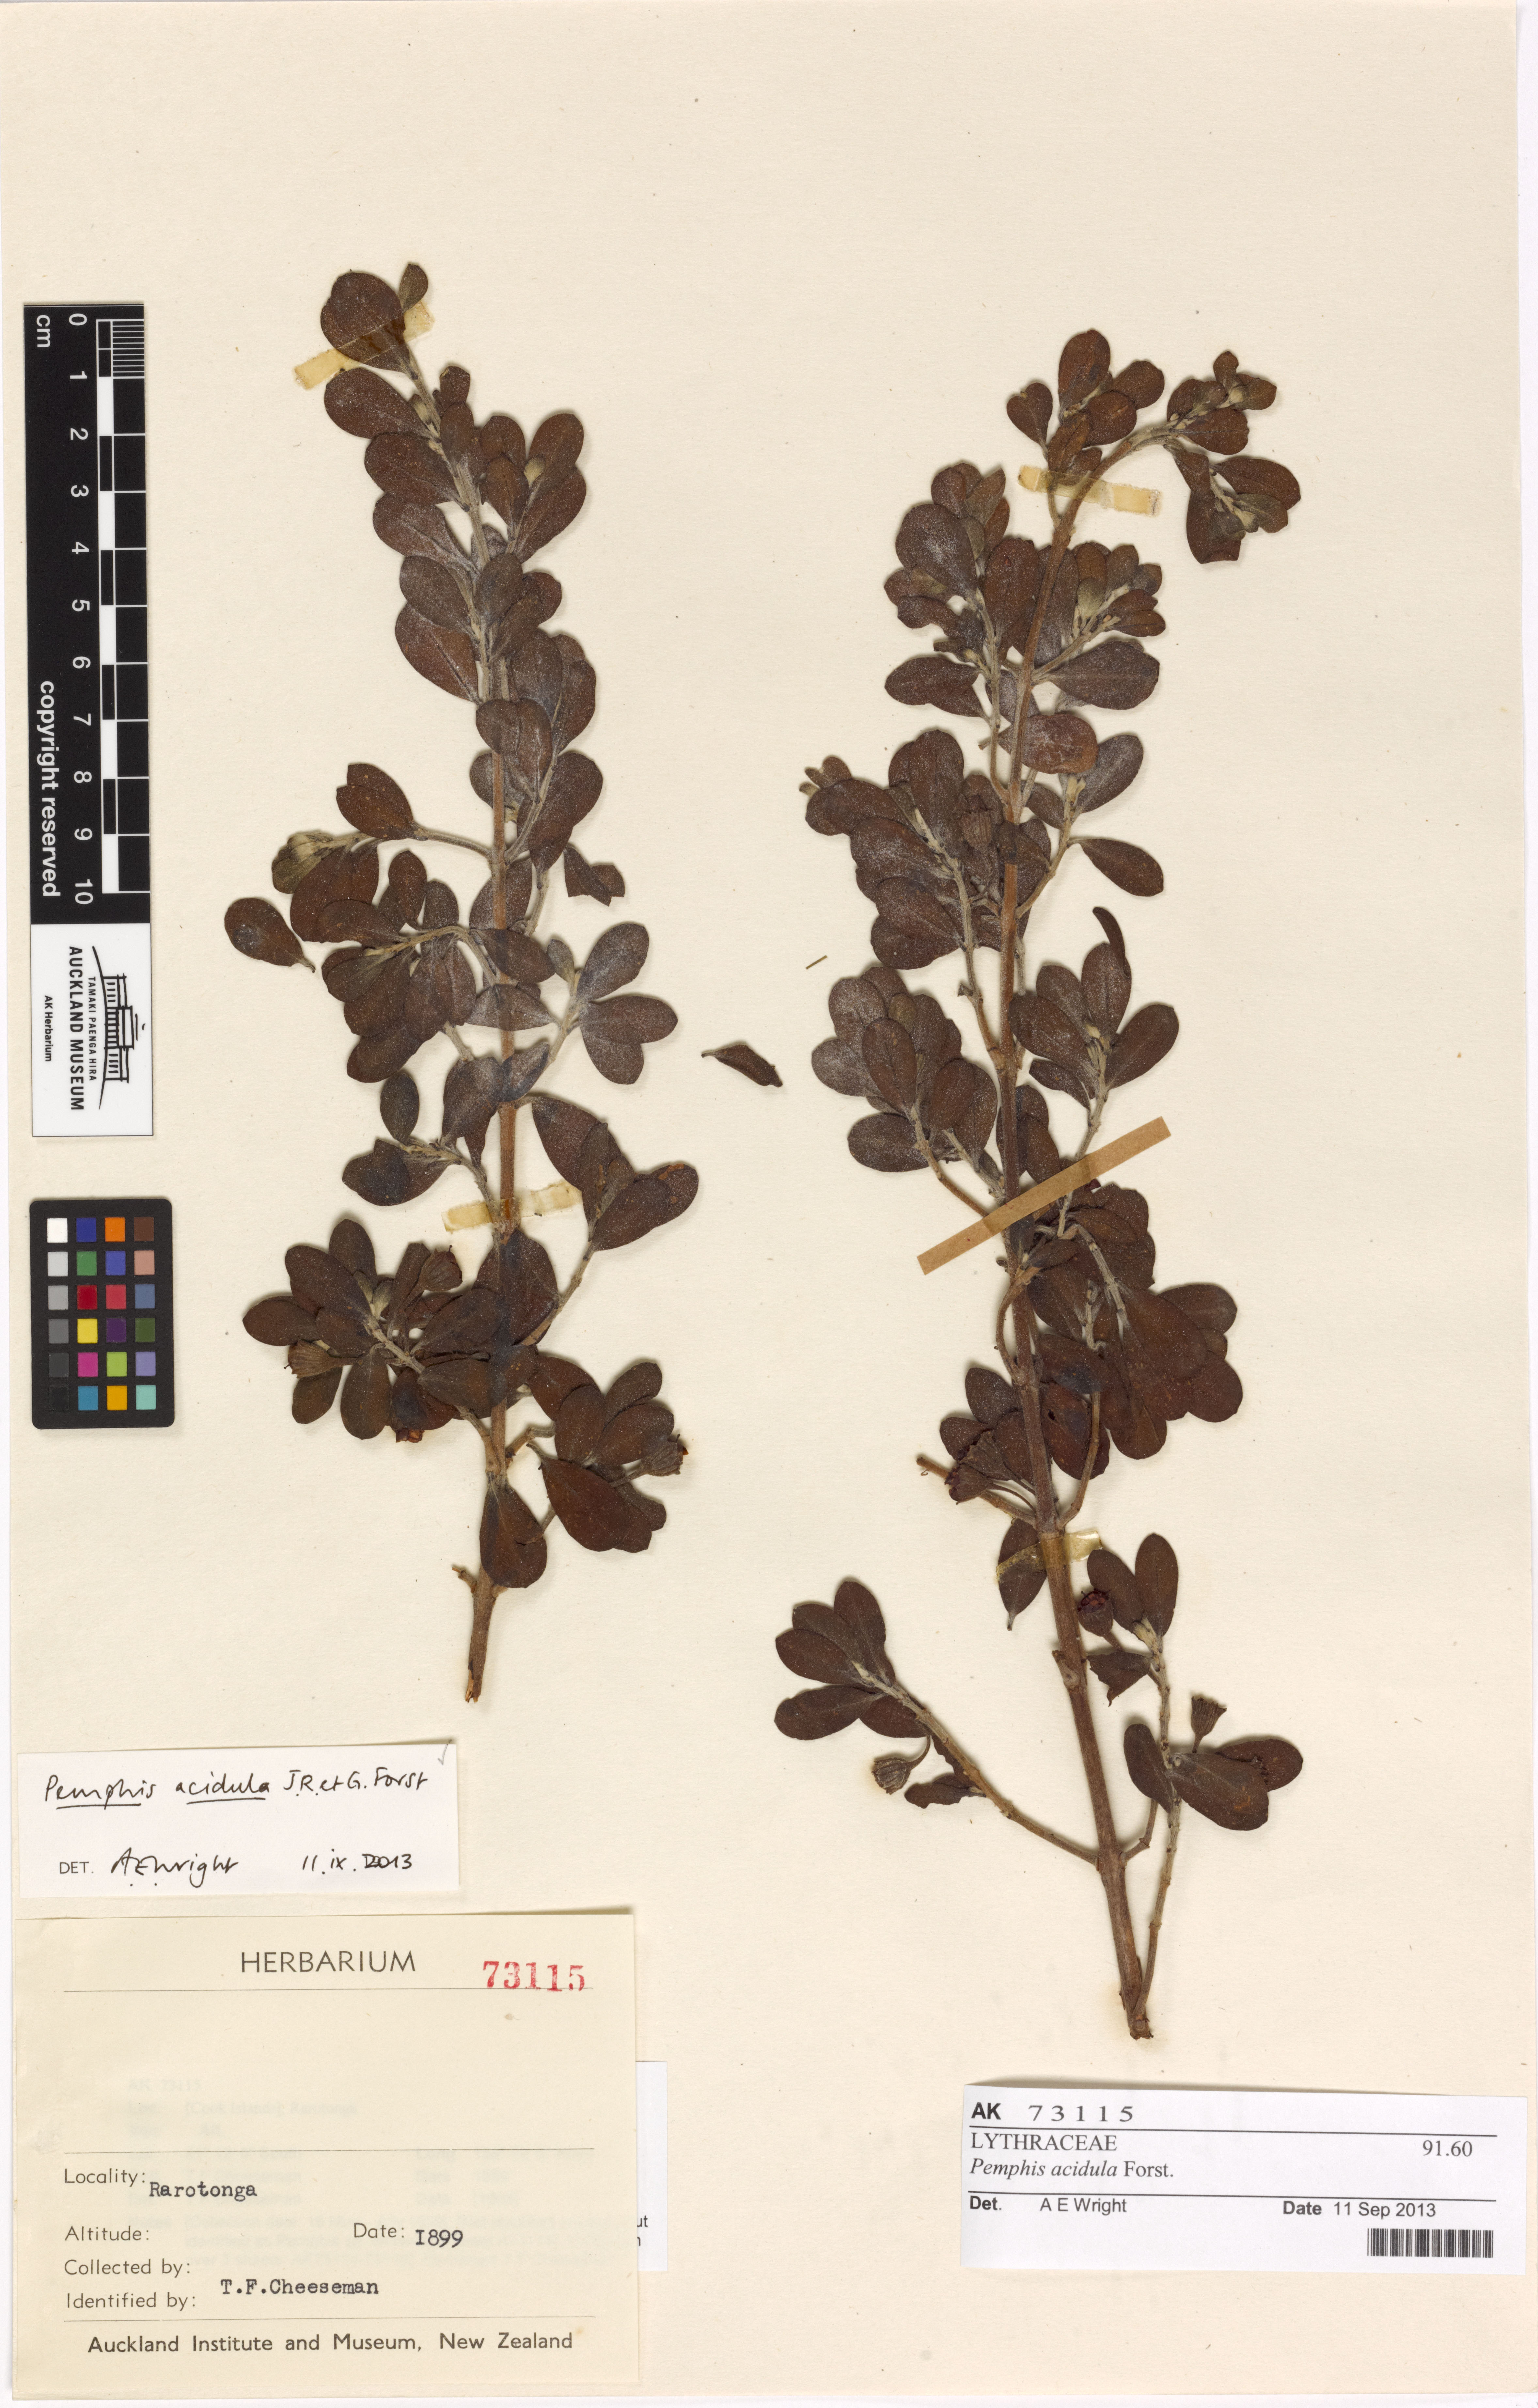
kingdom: Plantae
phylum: Tracheophyta
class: Magnoliopsida
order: Myrtales
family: Lythraceae
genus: Pemphis
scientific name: Pemphis acidula
